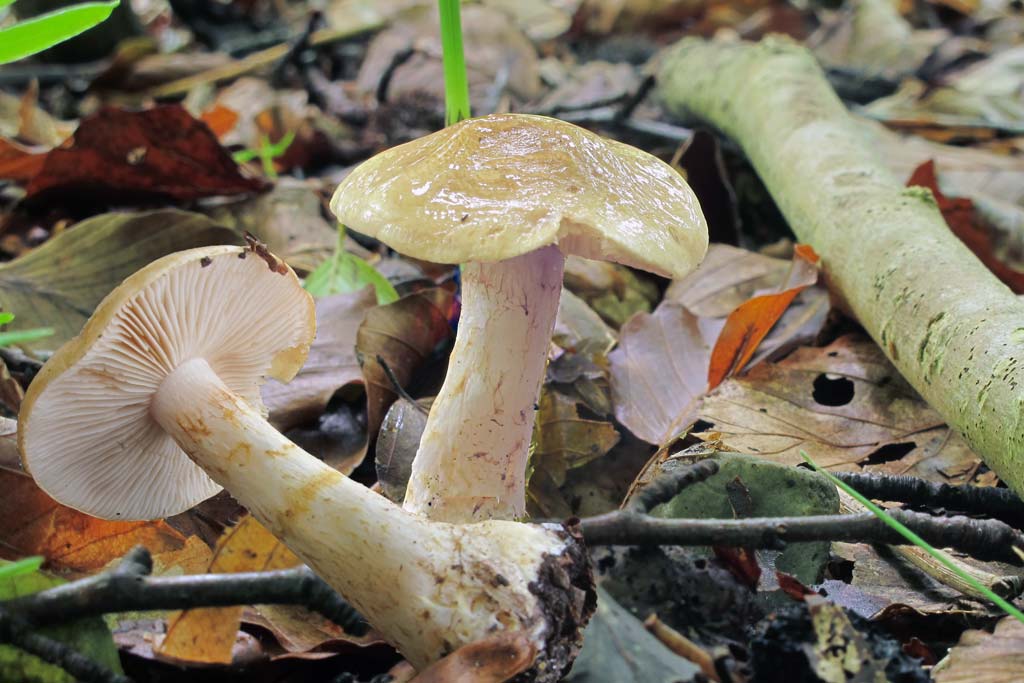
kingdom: Fungi
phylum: Basidiomycota
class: Agaricomycetes
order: Agaricales
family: Cortinariaceae
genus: Phlegmacium
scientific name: Phlegmacium cliduchus
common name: majs-slørhat
